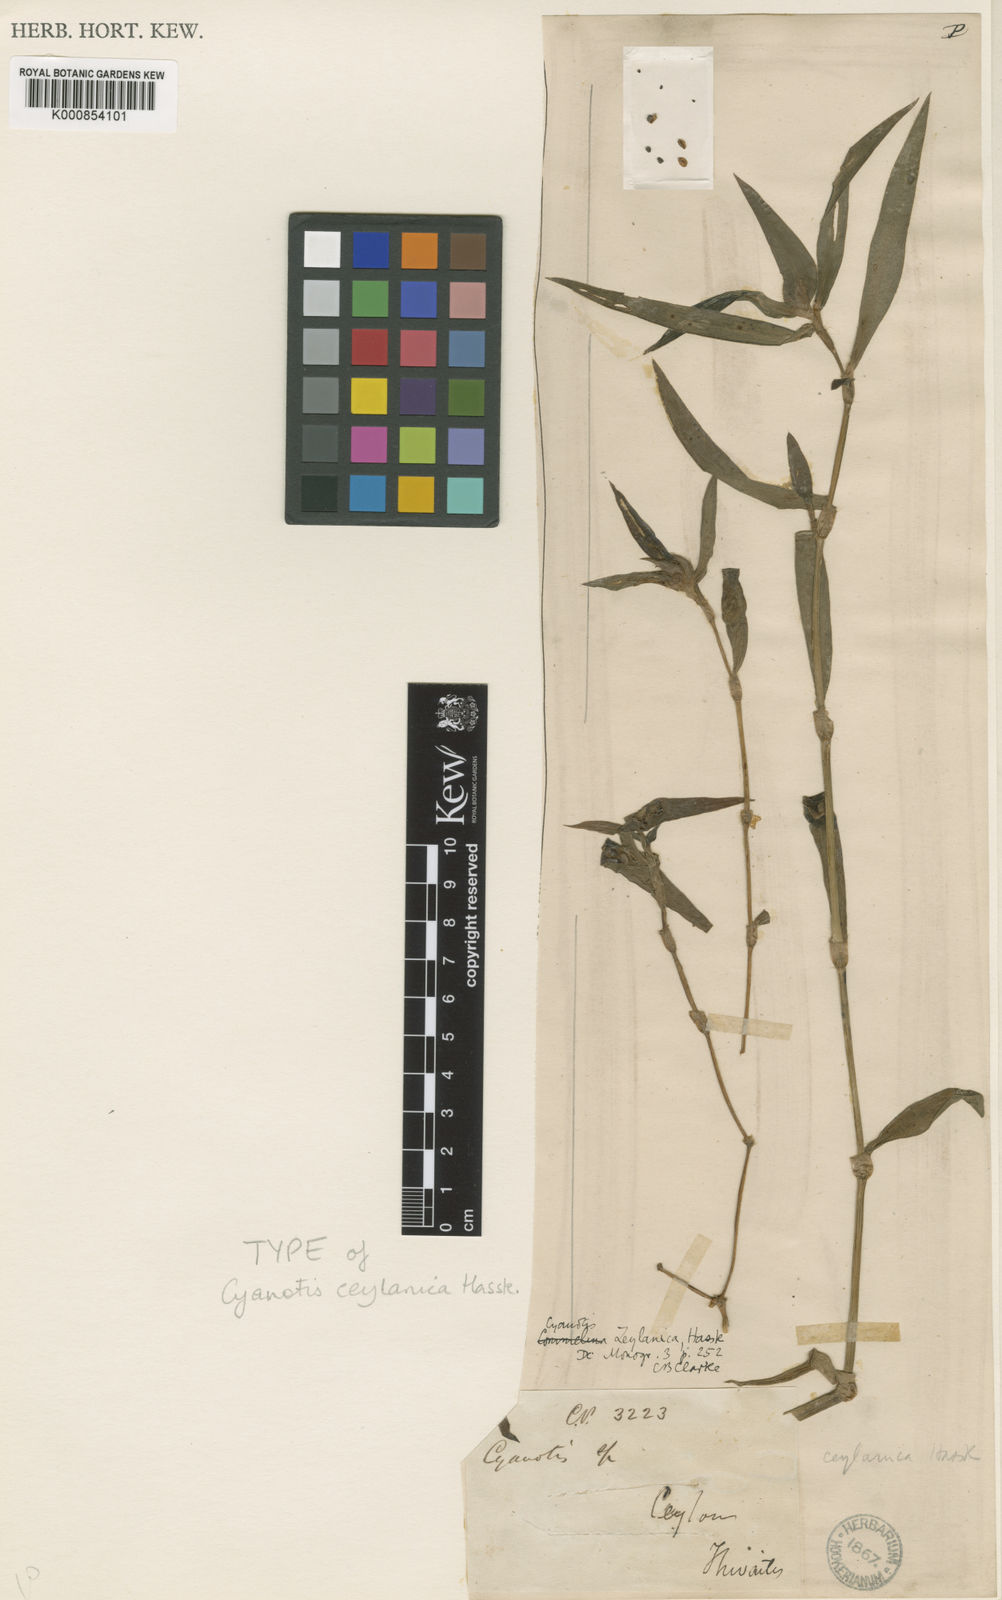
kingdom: Plantae
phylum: Tracheophyta
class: Liliopsida
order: Commelinales
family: Commelinaceae
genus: Cyanotis
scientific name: Cyanotis ceylanica
